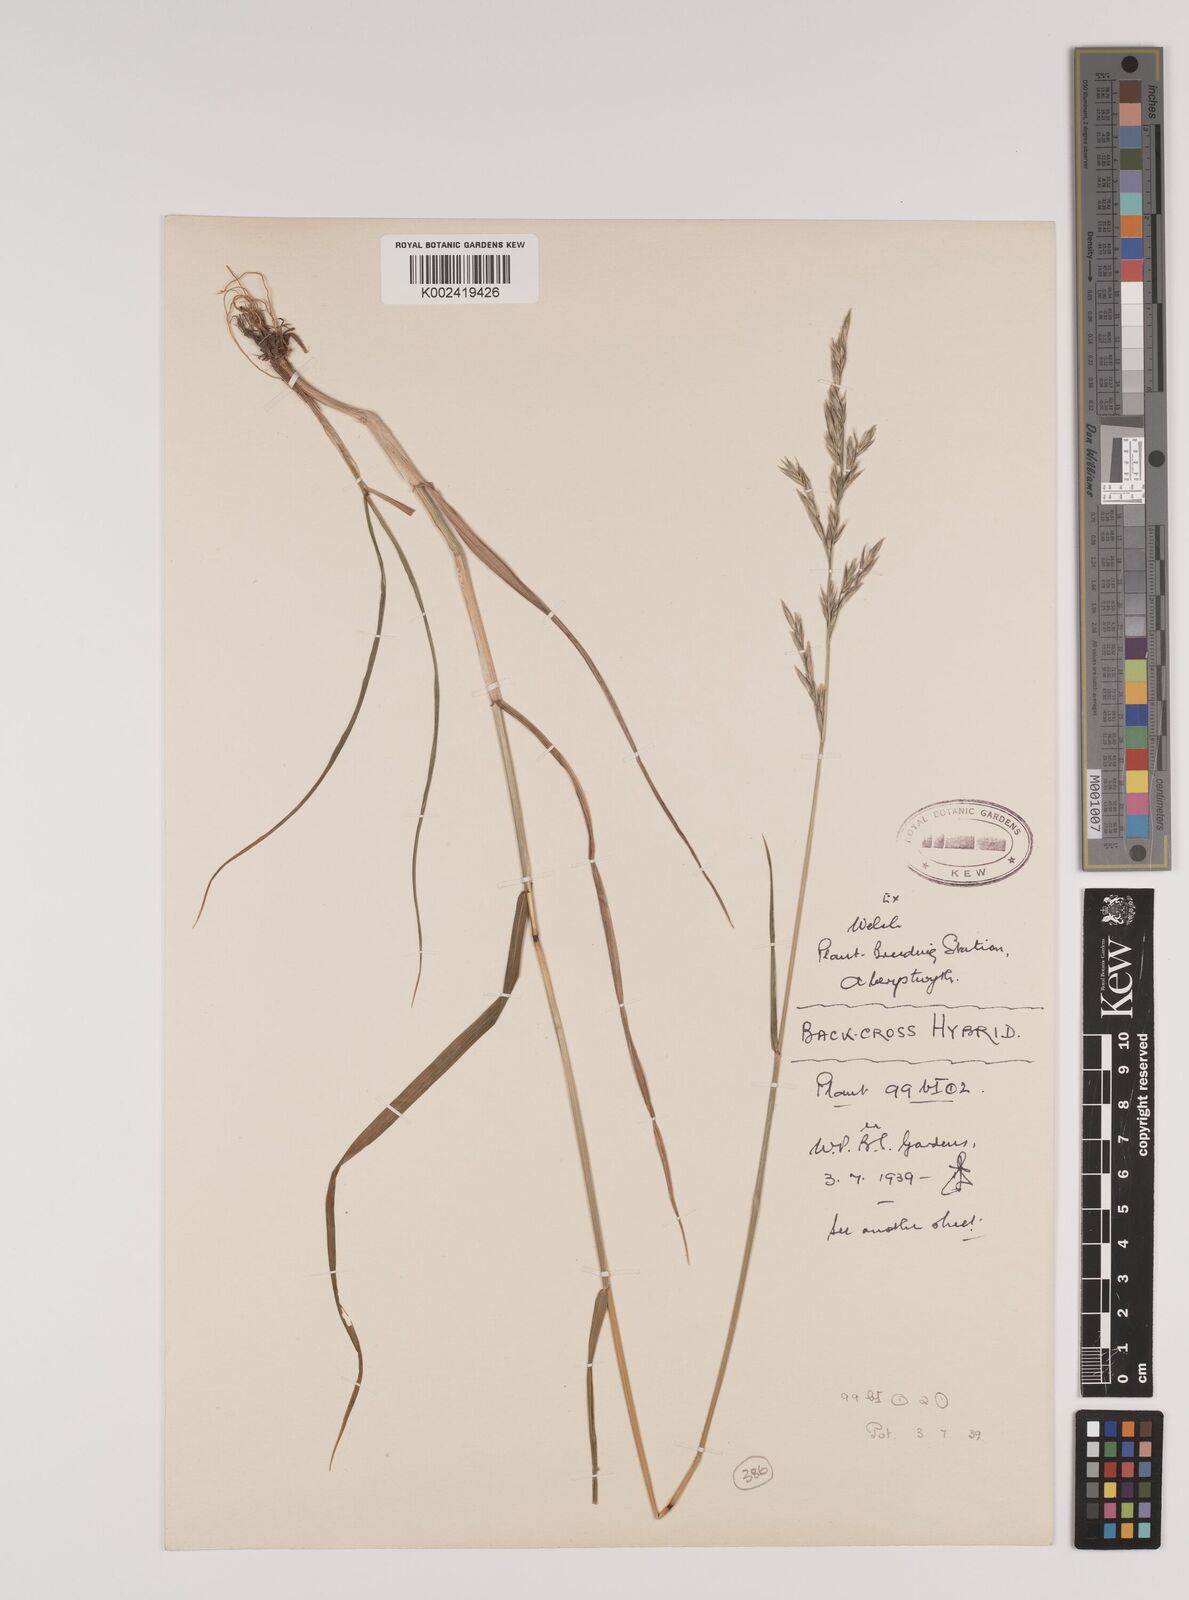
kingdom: Plantae
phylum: Tracheophyta
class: Liliopsida
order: Poales
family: Poaceae
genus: Lolium
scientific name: Lolium giganteum
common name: Giant fescue
